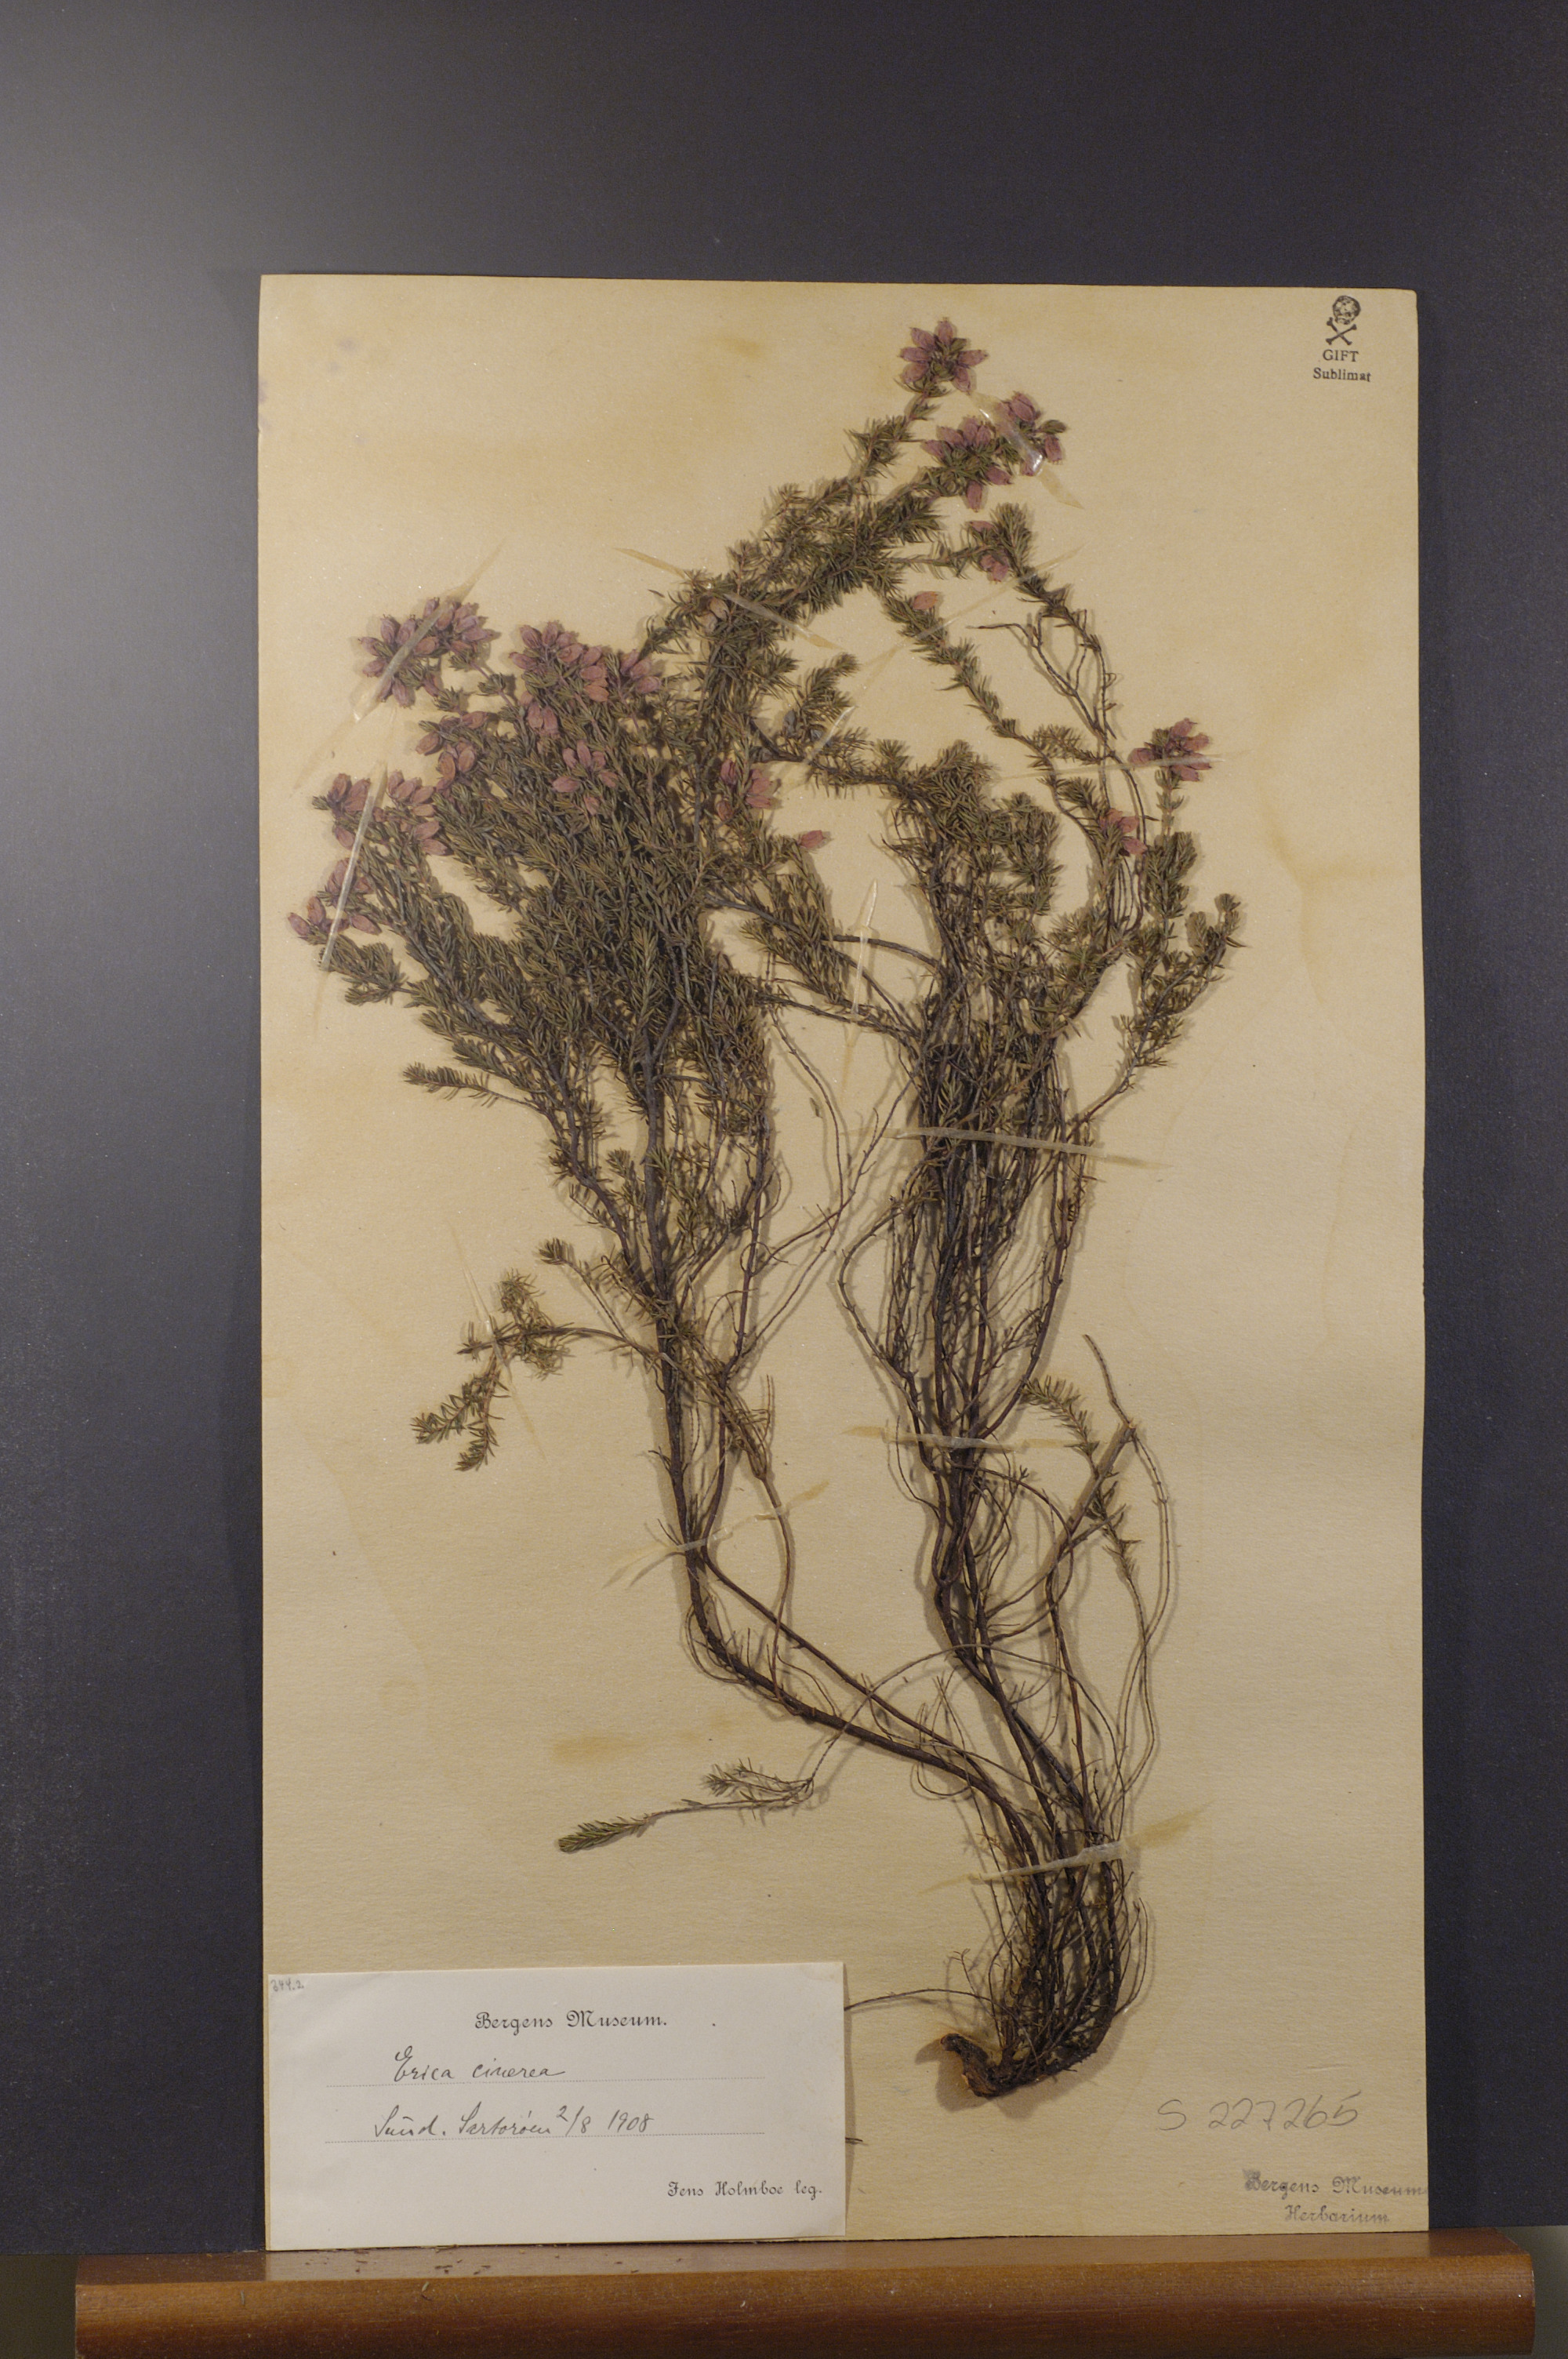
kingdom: Plantae
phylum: Tracheophyta
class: Magnoliopsida
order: Ericales
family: Ericaceae
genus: Erica
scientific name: Erica cinerea
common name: Bell heather
